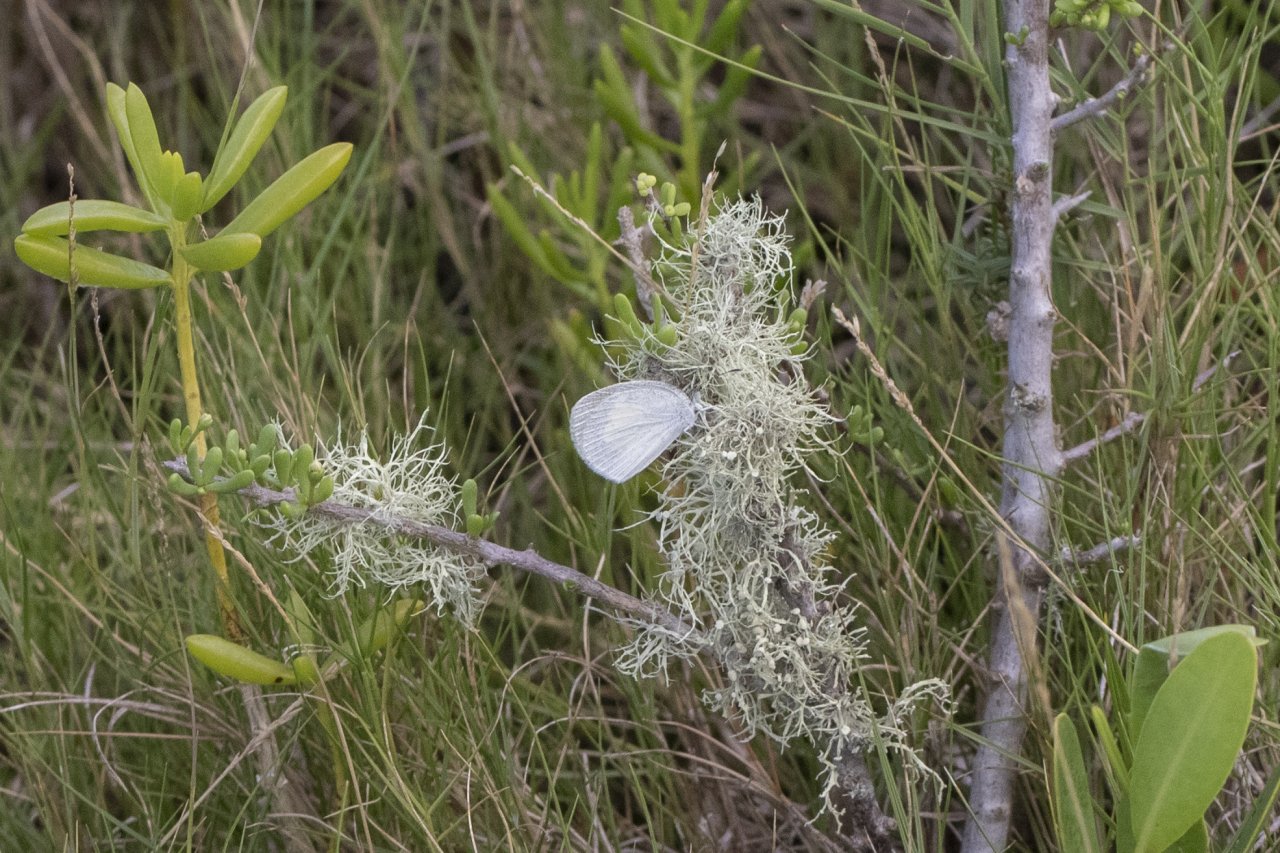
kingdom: Animalia
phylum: Arthropoda
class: Insecta
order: Lepidoptera
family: Pieridae
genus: Eurema
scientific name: Eurema daira
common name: Barred Yellow
